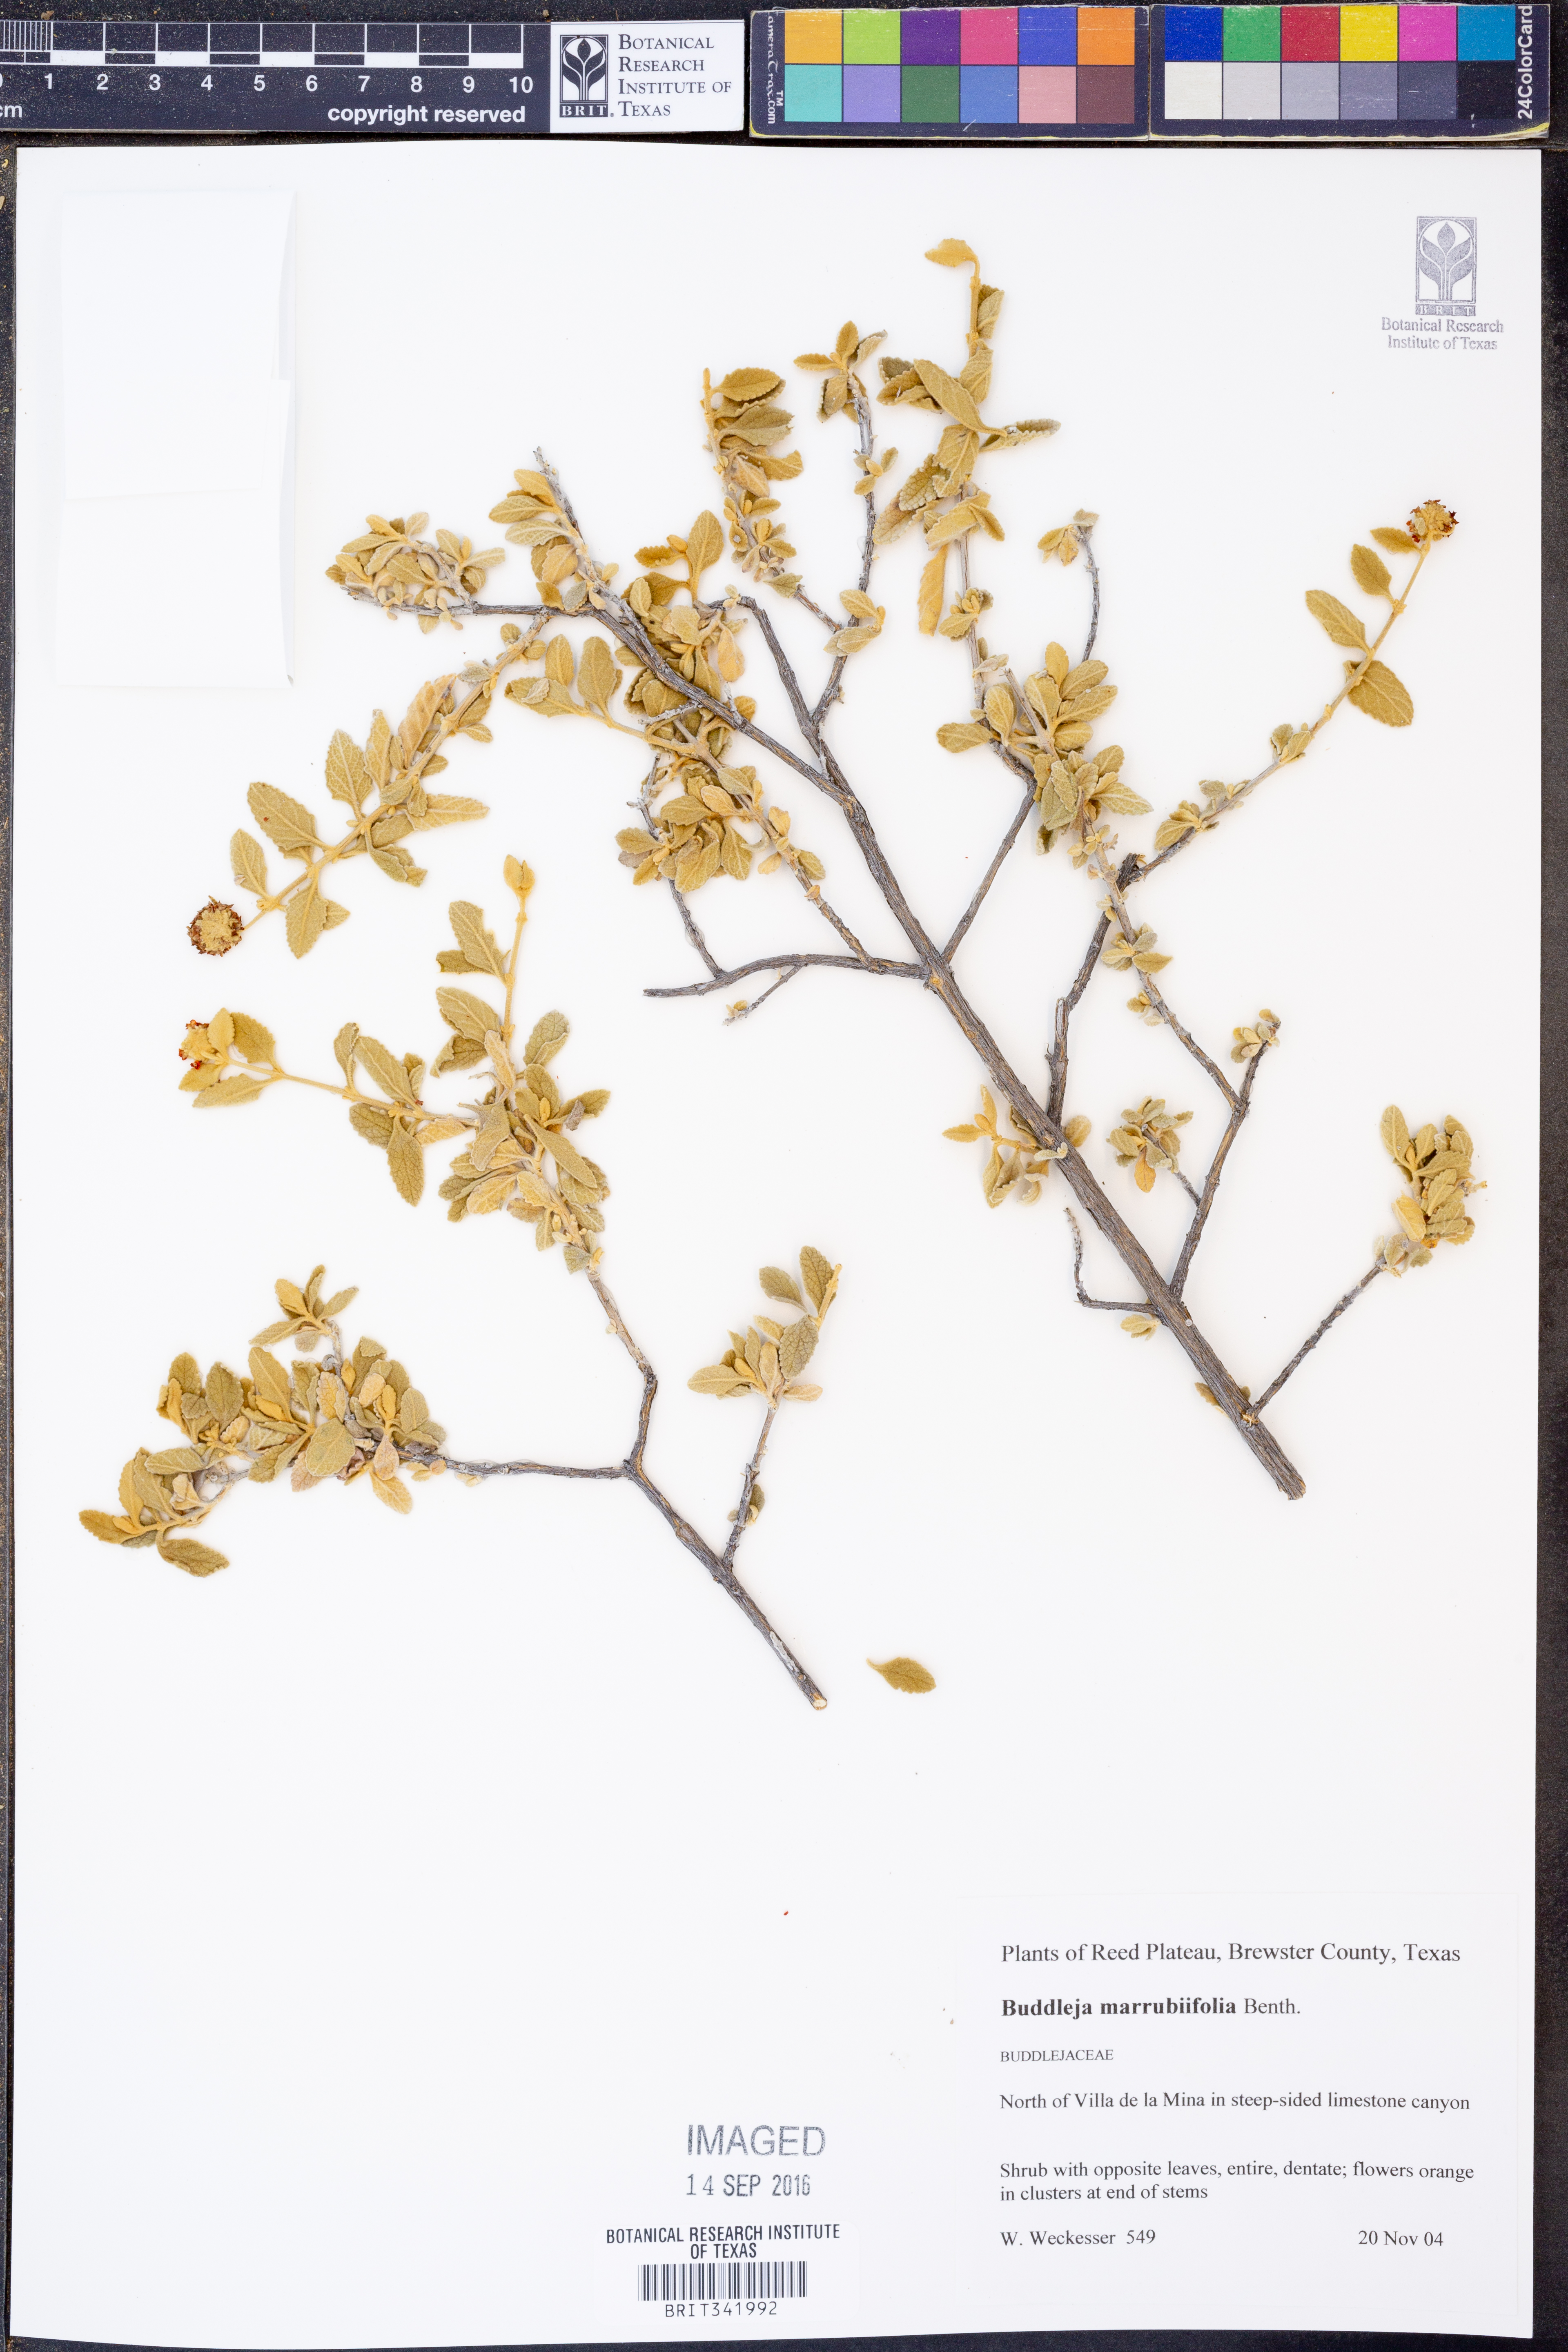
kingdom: Plantae
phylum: Tracheophyta
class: Magnoliopsida
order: Lamiales
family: Scrophulariaceae
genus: Buddleja
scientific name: Buddleja marrubiifolia
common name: Woolly butterfly-bush
